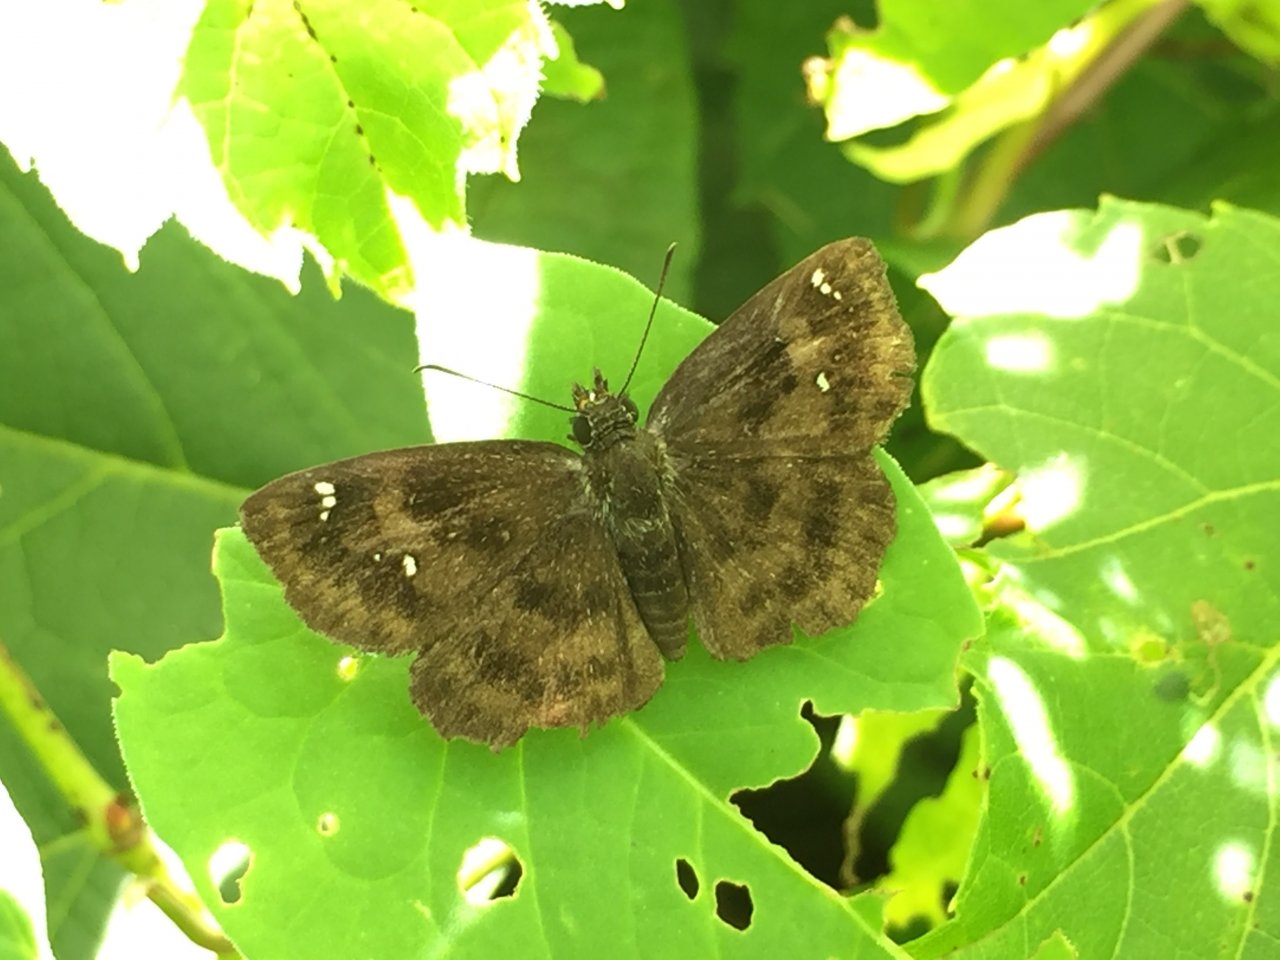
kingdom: Animalia
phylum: Arthropoda
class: Insecta
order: Lepidoptera
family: Hesperiidae
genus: Staphylus
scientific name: Staphylus mazans
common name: Hayhurst's Scallopwing
